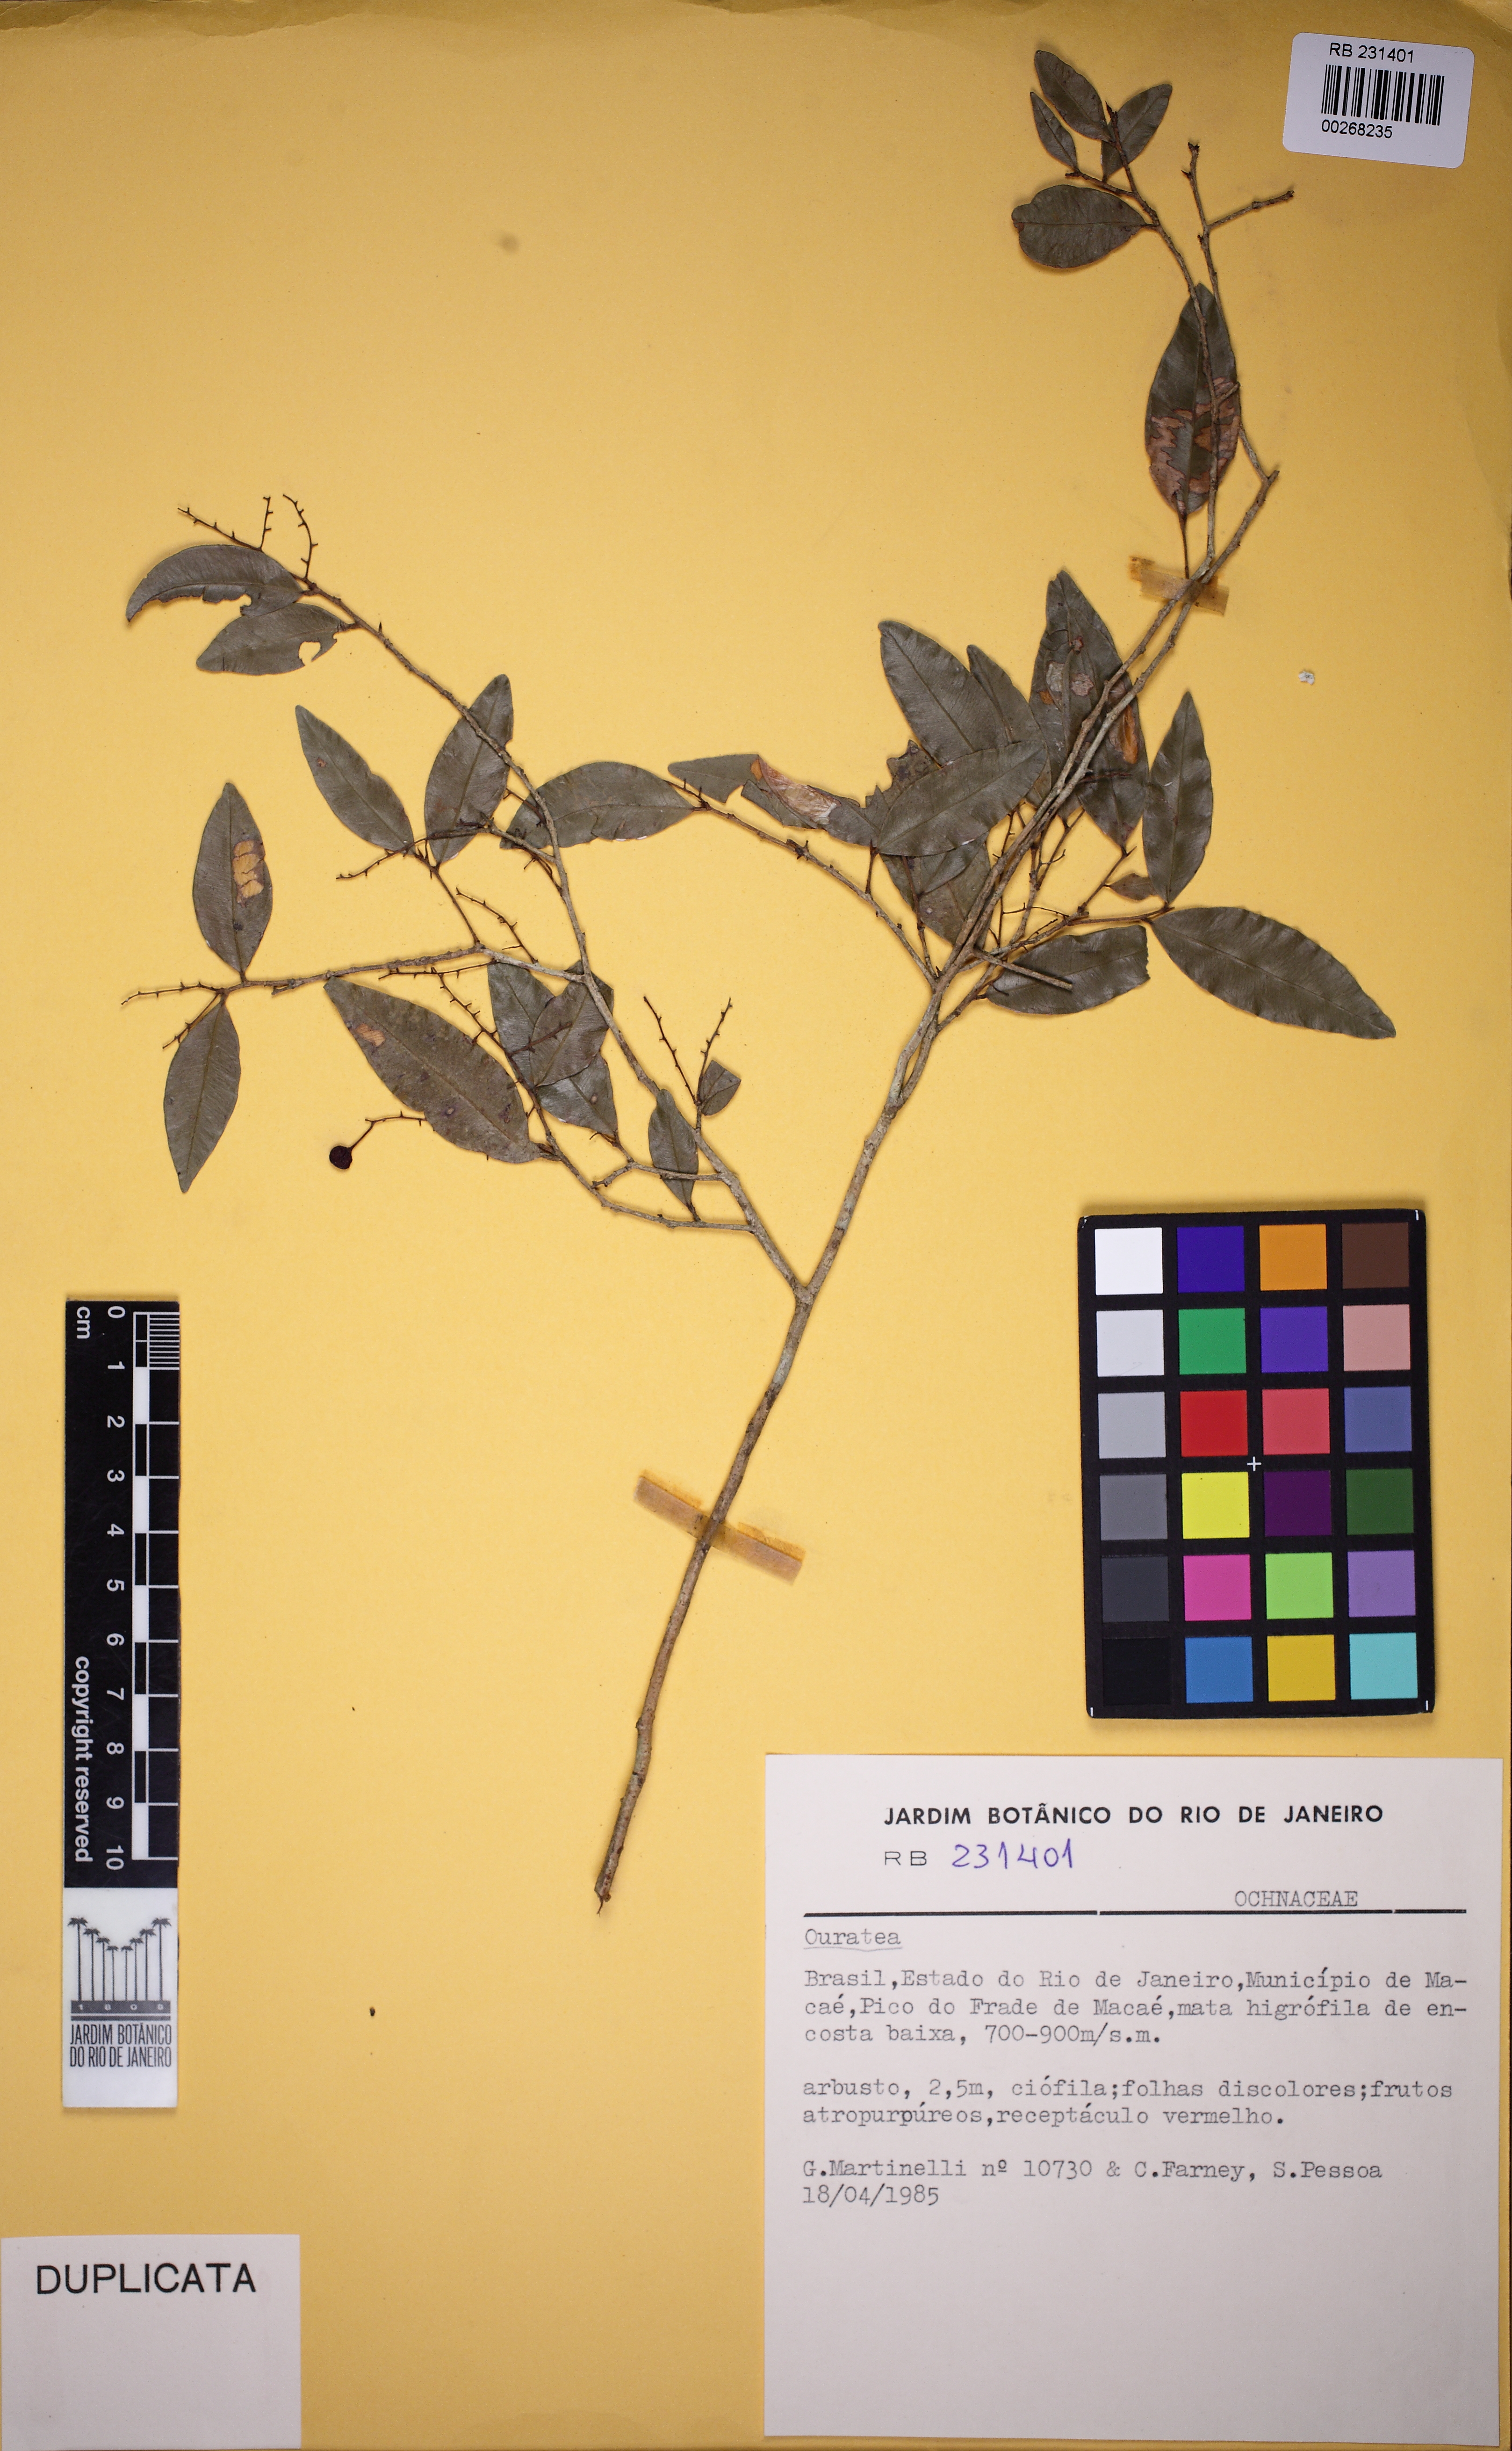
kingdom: Plantae
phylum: Tracheophyta
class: Magnoliopsida
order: Malpighiales
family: Ochnaceae
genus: Ouratea
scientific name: Ouratea parviflora
